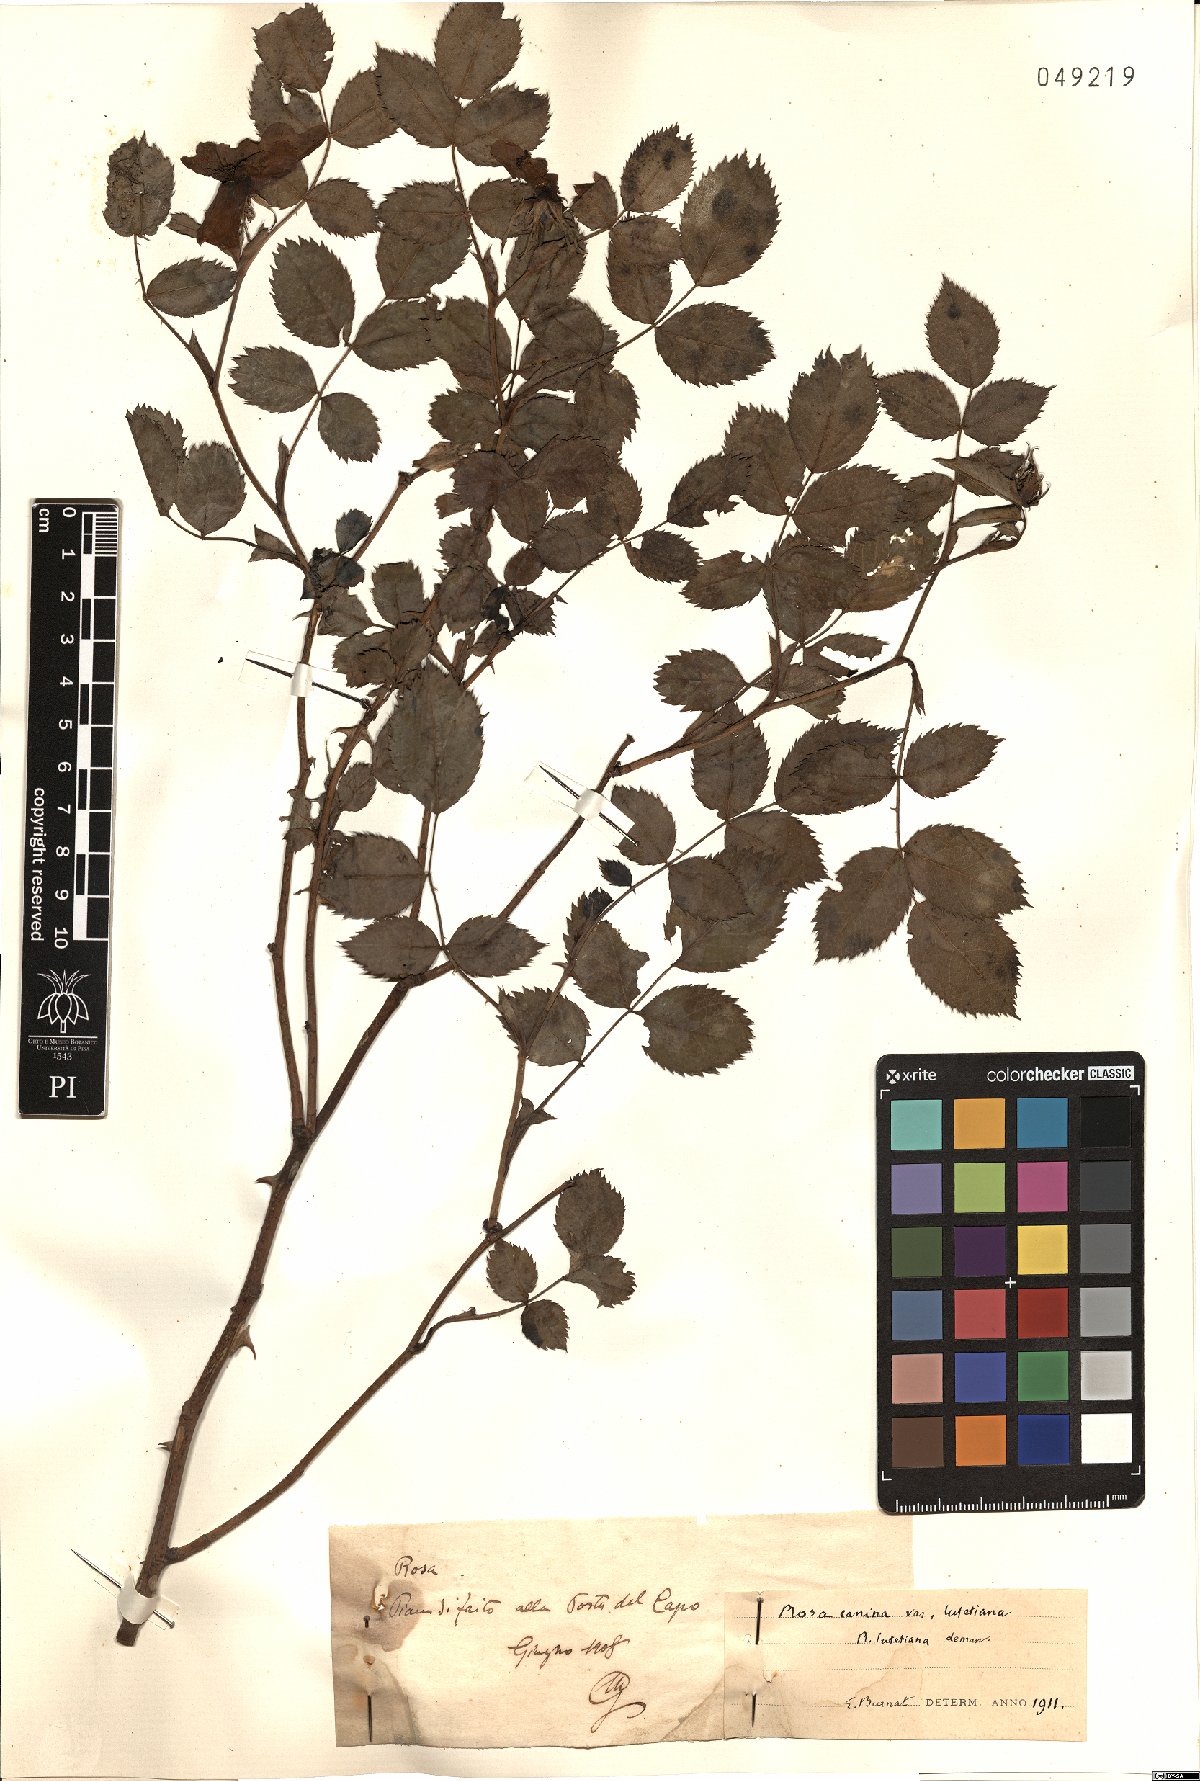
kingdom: Plantae
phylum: Tracheophyta
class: Magnoliopsida
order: Rosales
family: Rosaceae
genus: Rosa
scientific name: Rosa canina
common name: Dog rose
